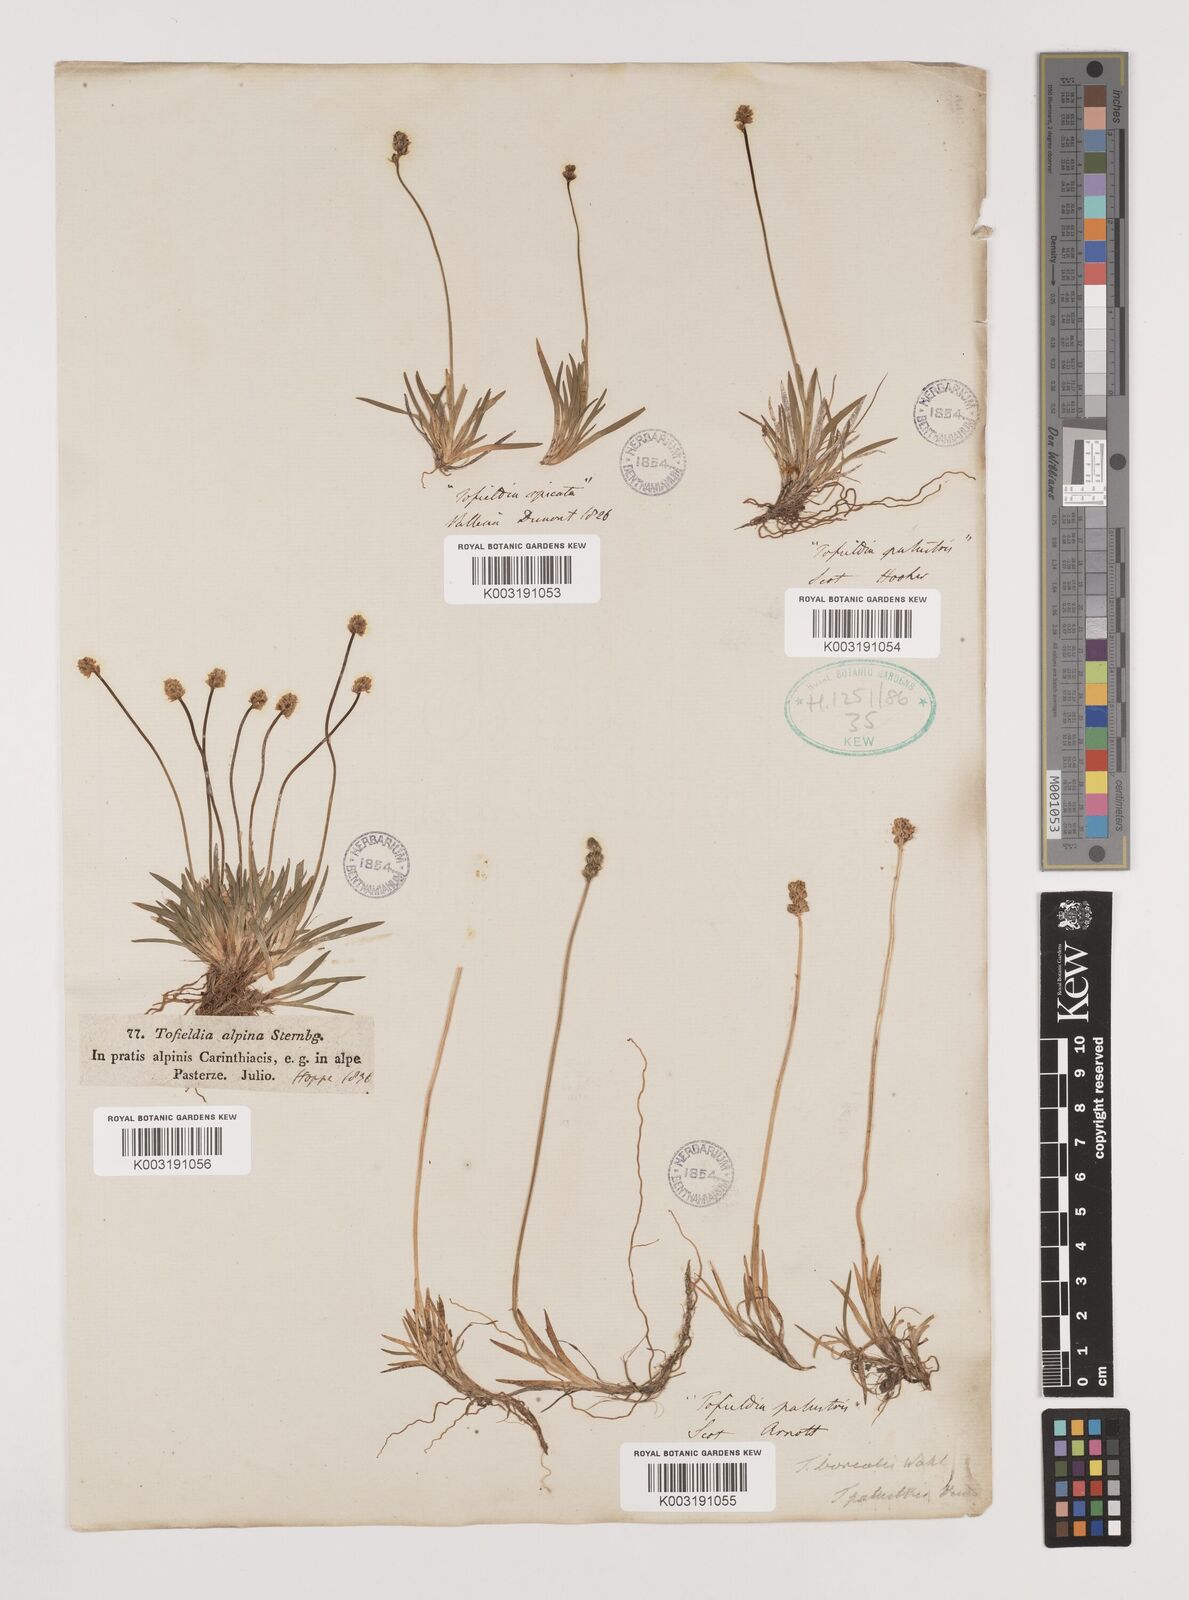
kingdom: Plantae
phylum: Tracheophyta
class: Liliopsida
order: Alismatales
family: Tofieldiaceae
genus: Tofieldia
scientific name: Tofieldia pusilla
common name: Scottish false asphodel
